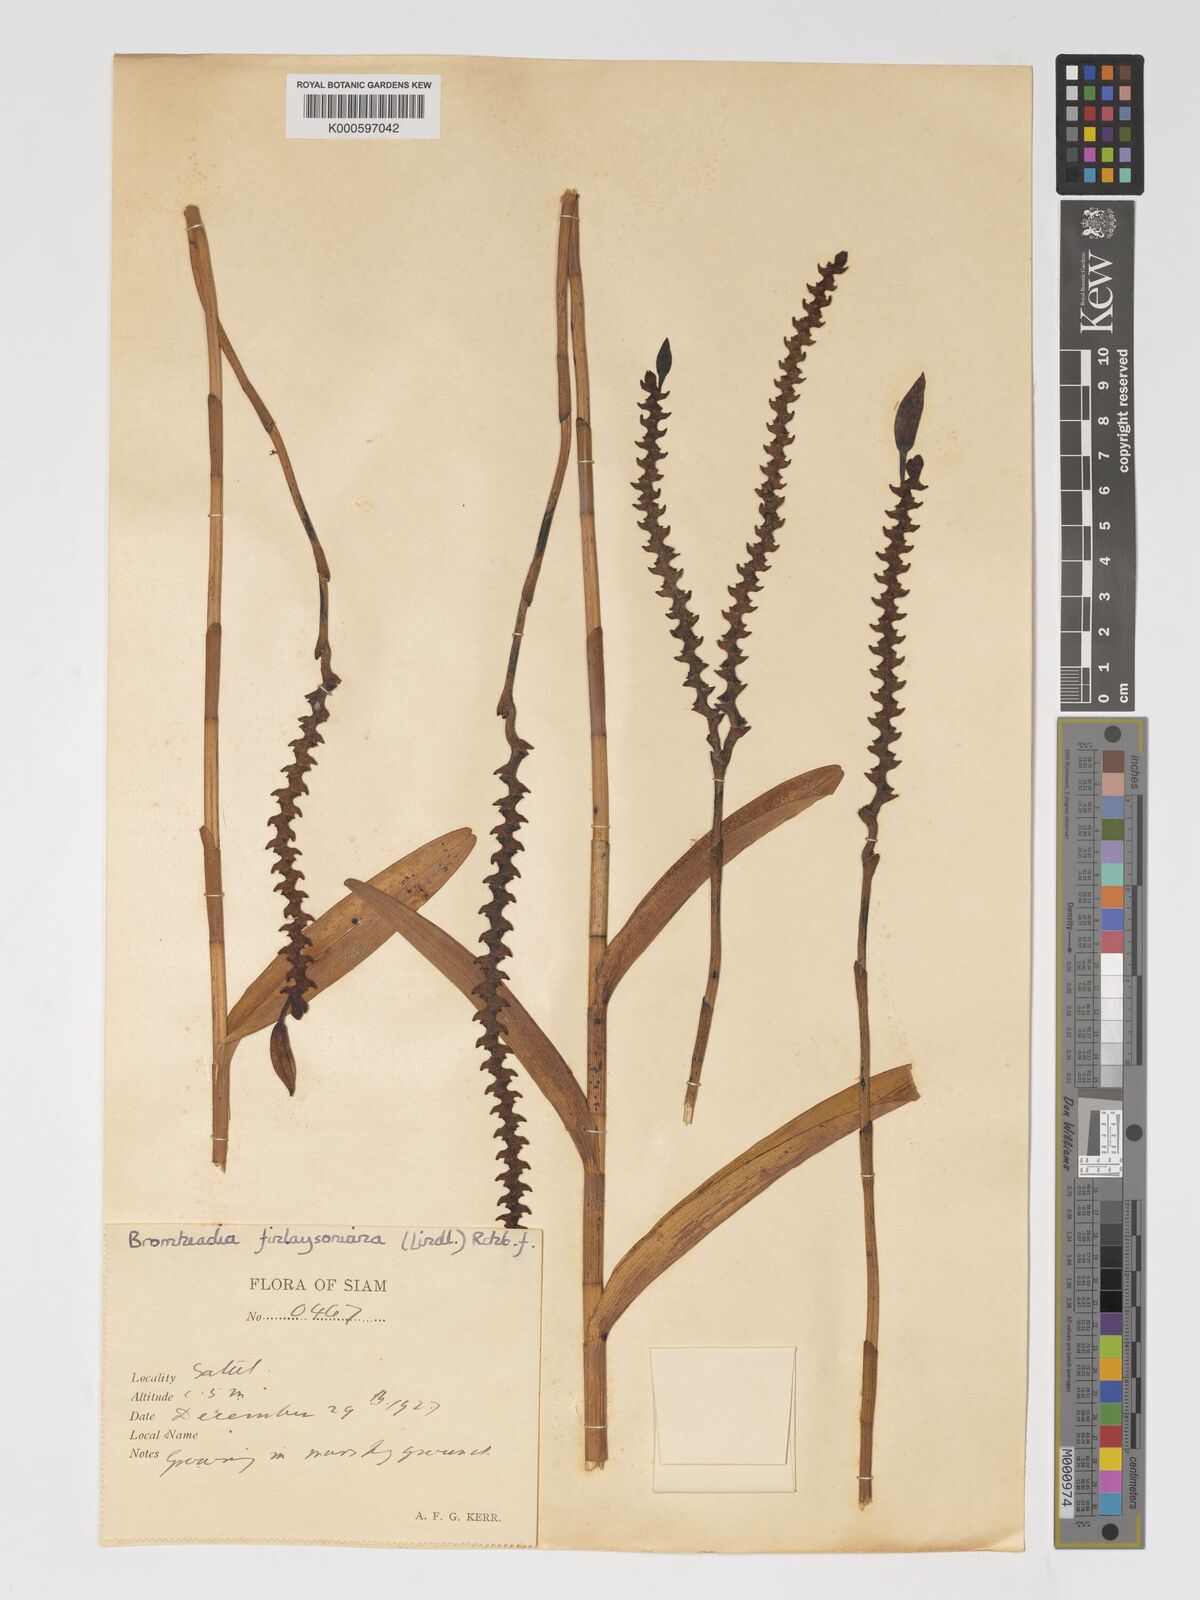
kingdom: Plantae
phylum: Tracheophyta
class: Liliopsida
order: Asparagales
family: Orchidaceae
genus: Bromheadia
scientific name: Bromheadia
